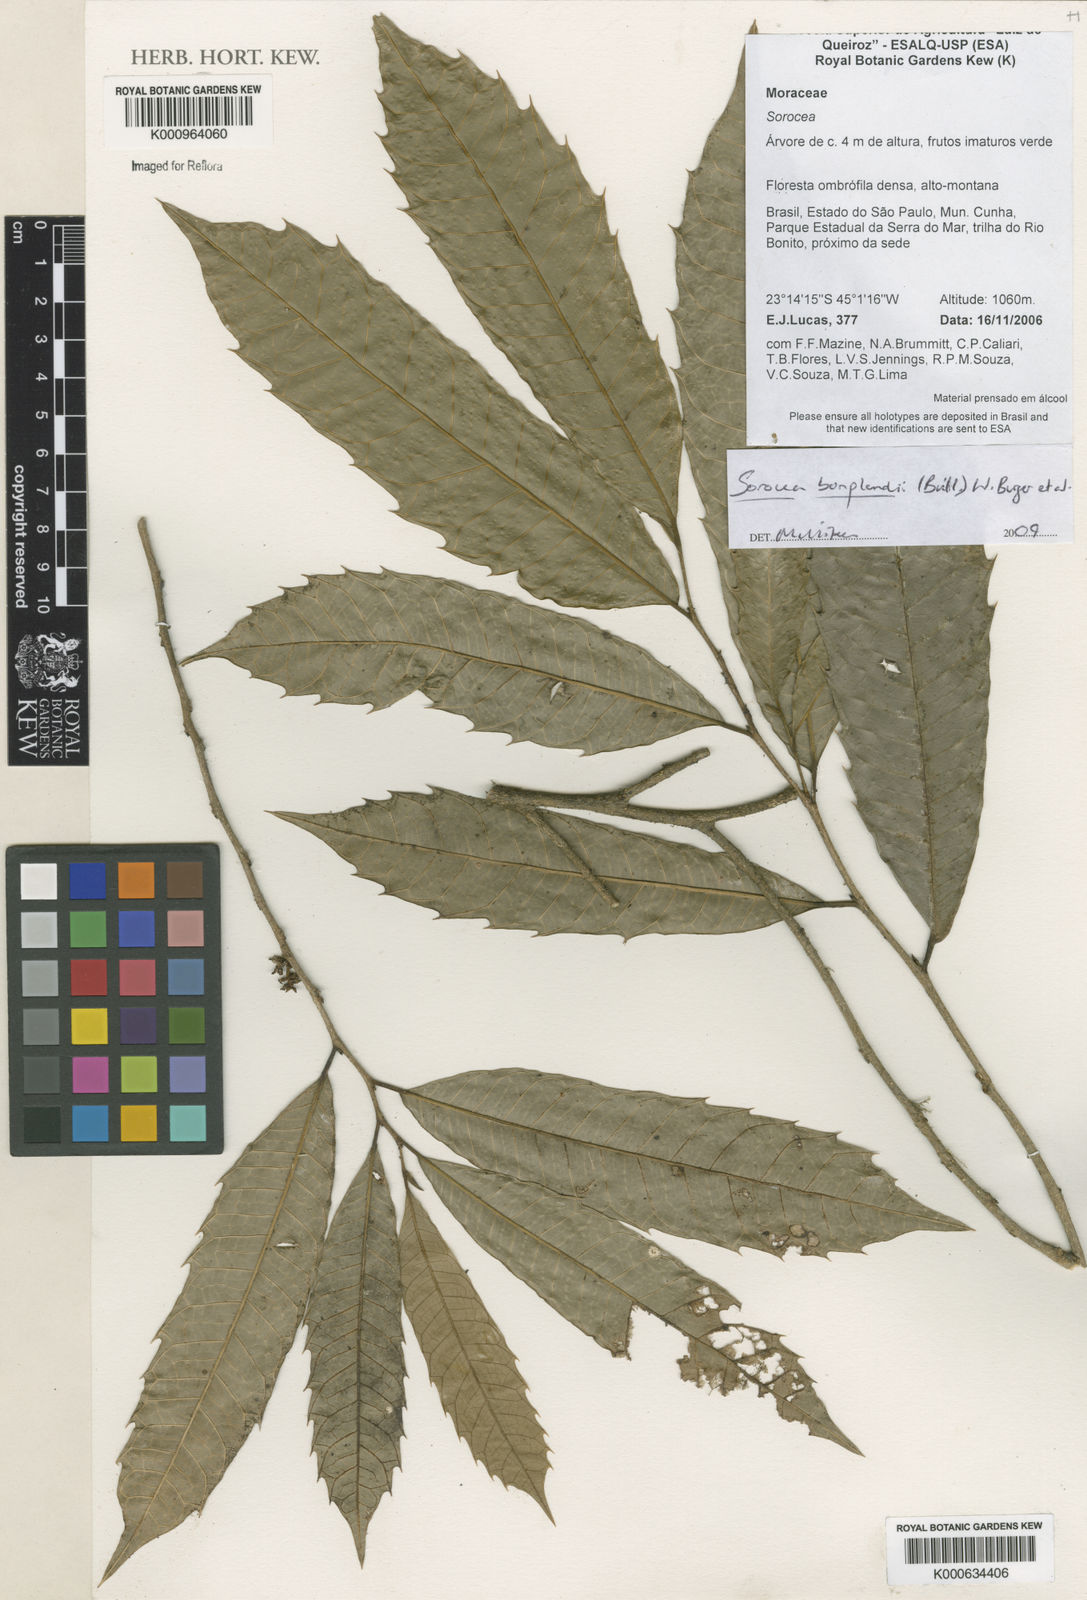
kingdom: Plantae
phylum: Tracheophyta
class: Magnoliopsida
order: Rosales
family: Moraceae
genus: Sorocea
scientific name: Sorocea
